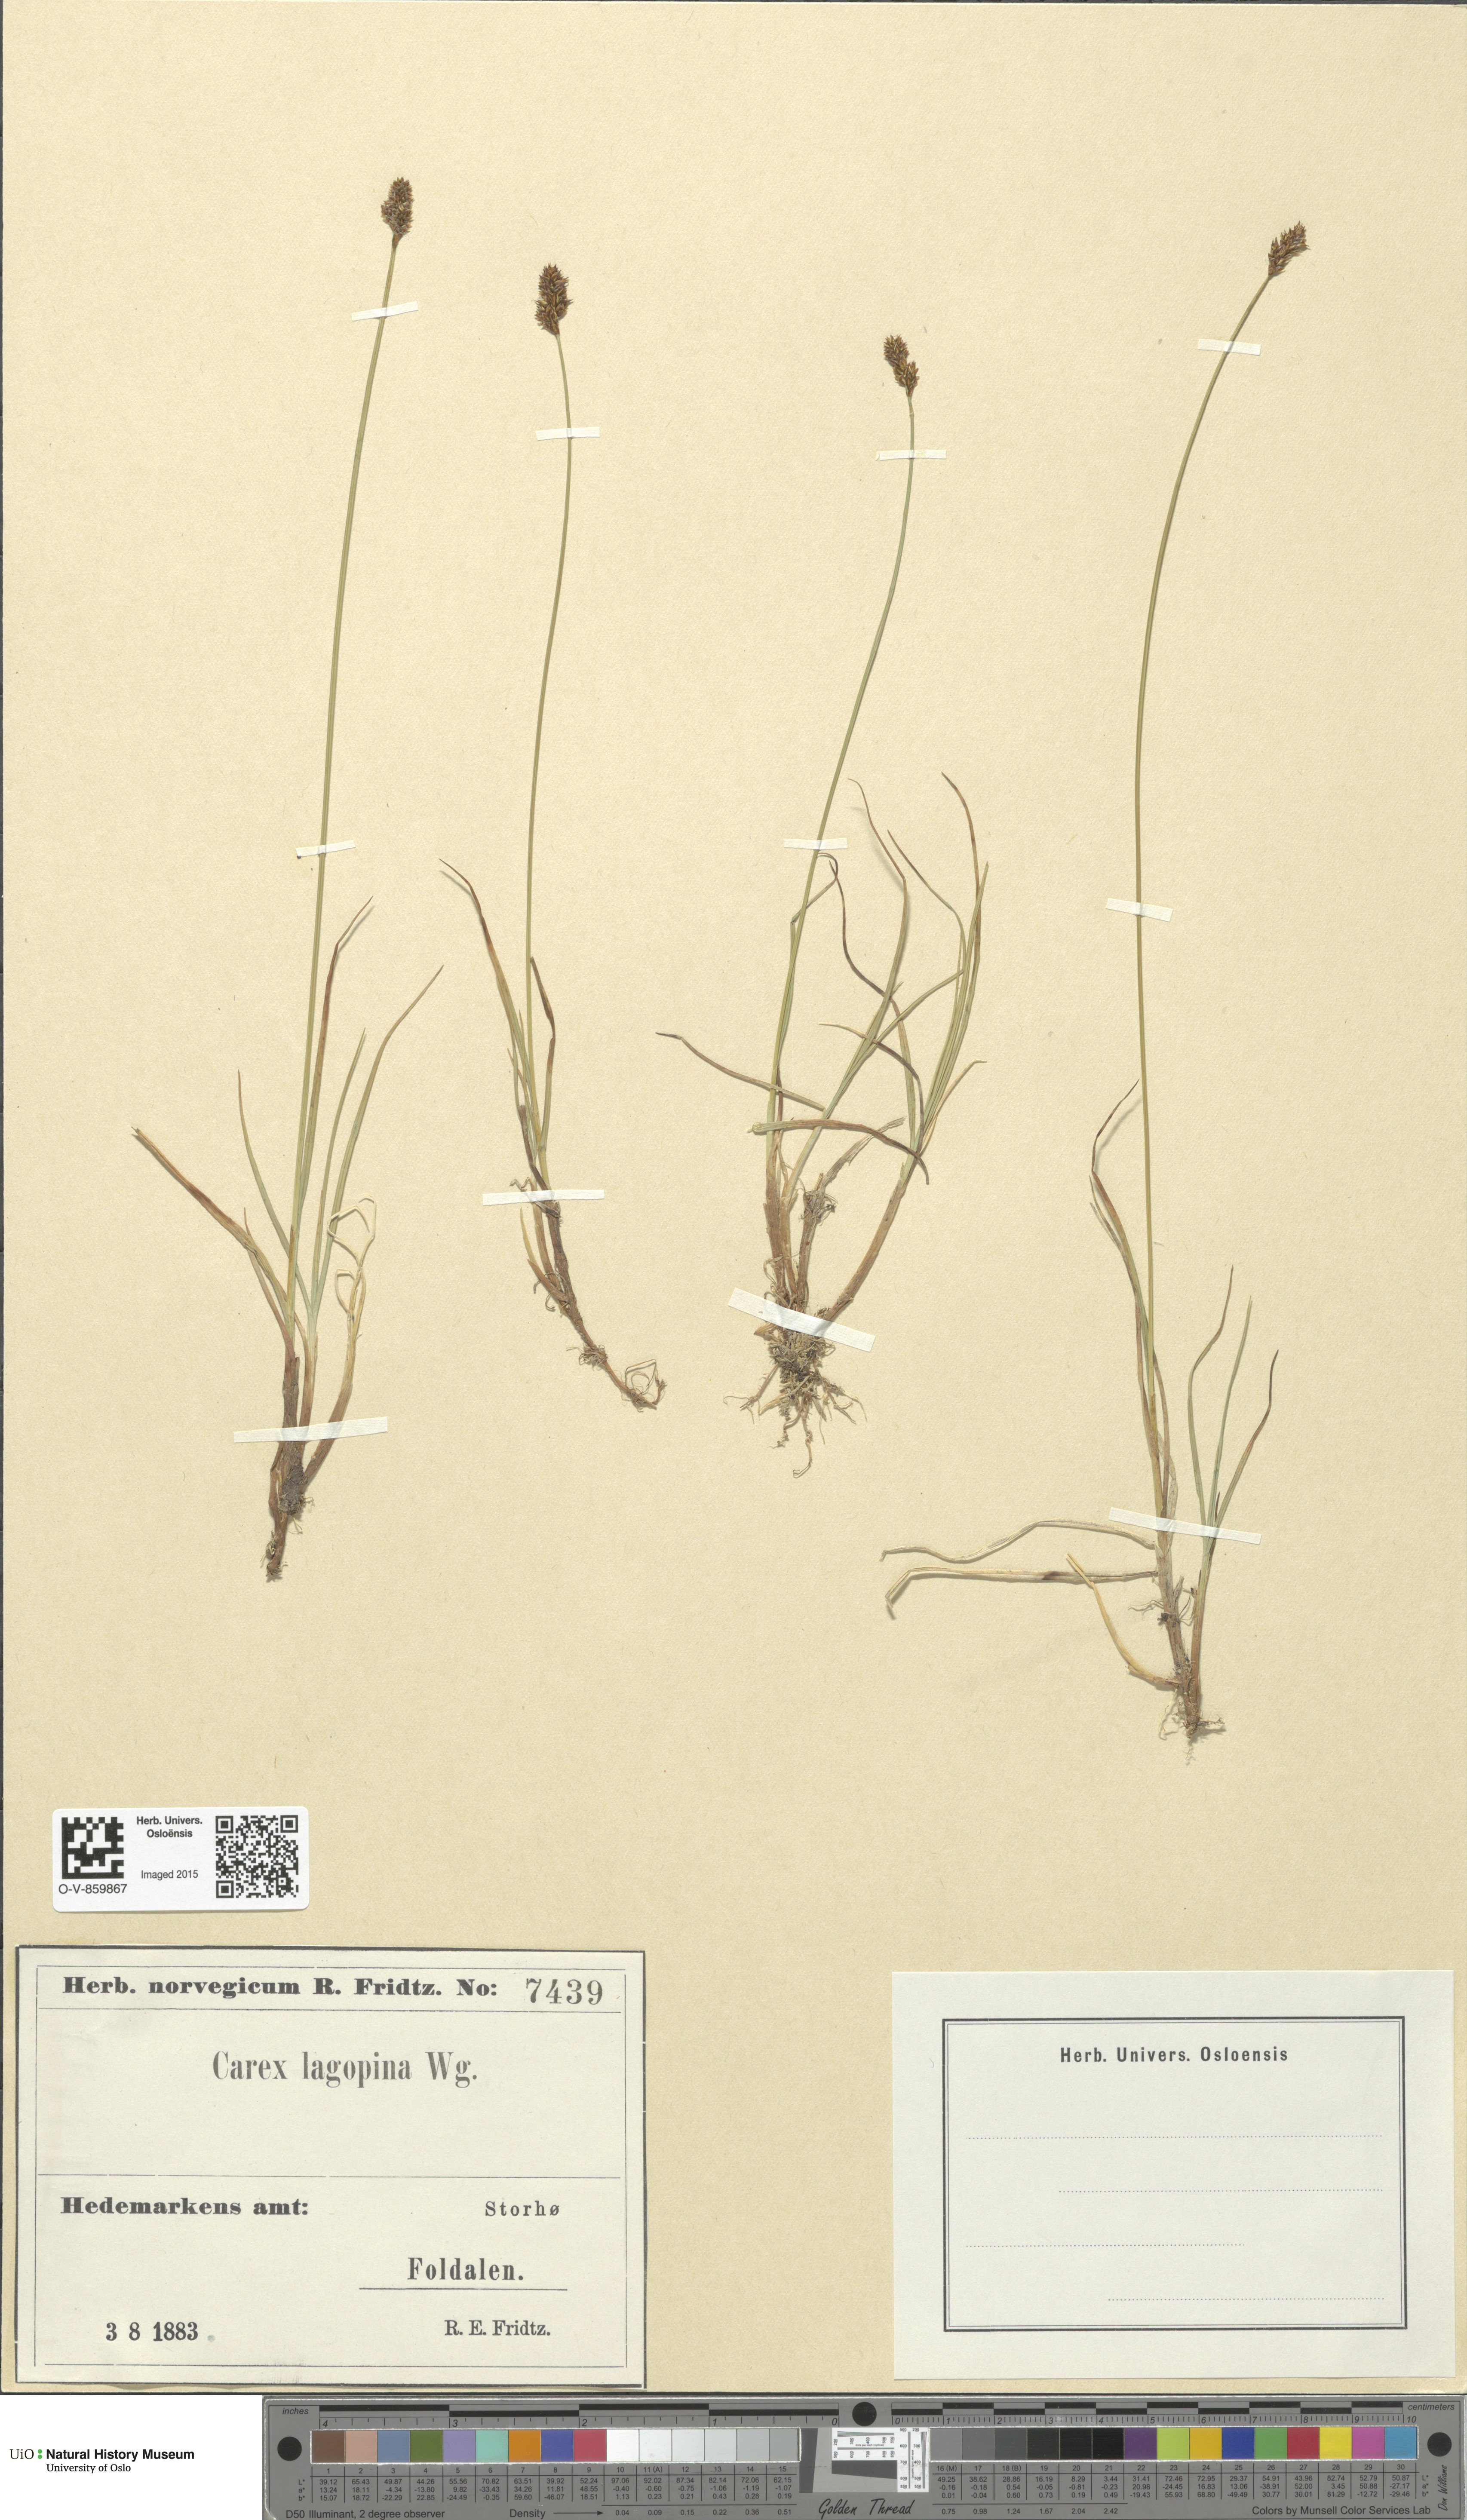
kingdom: Plantae
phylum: Tracheophyta
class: Liliopsida
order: Poales
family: Cyperaceae
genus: Carex
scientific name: Carex lachenalii
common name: Hare's-foot sedge
